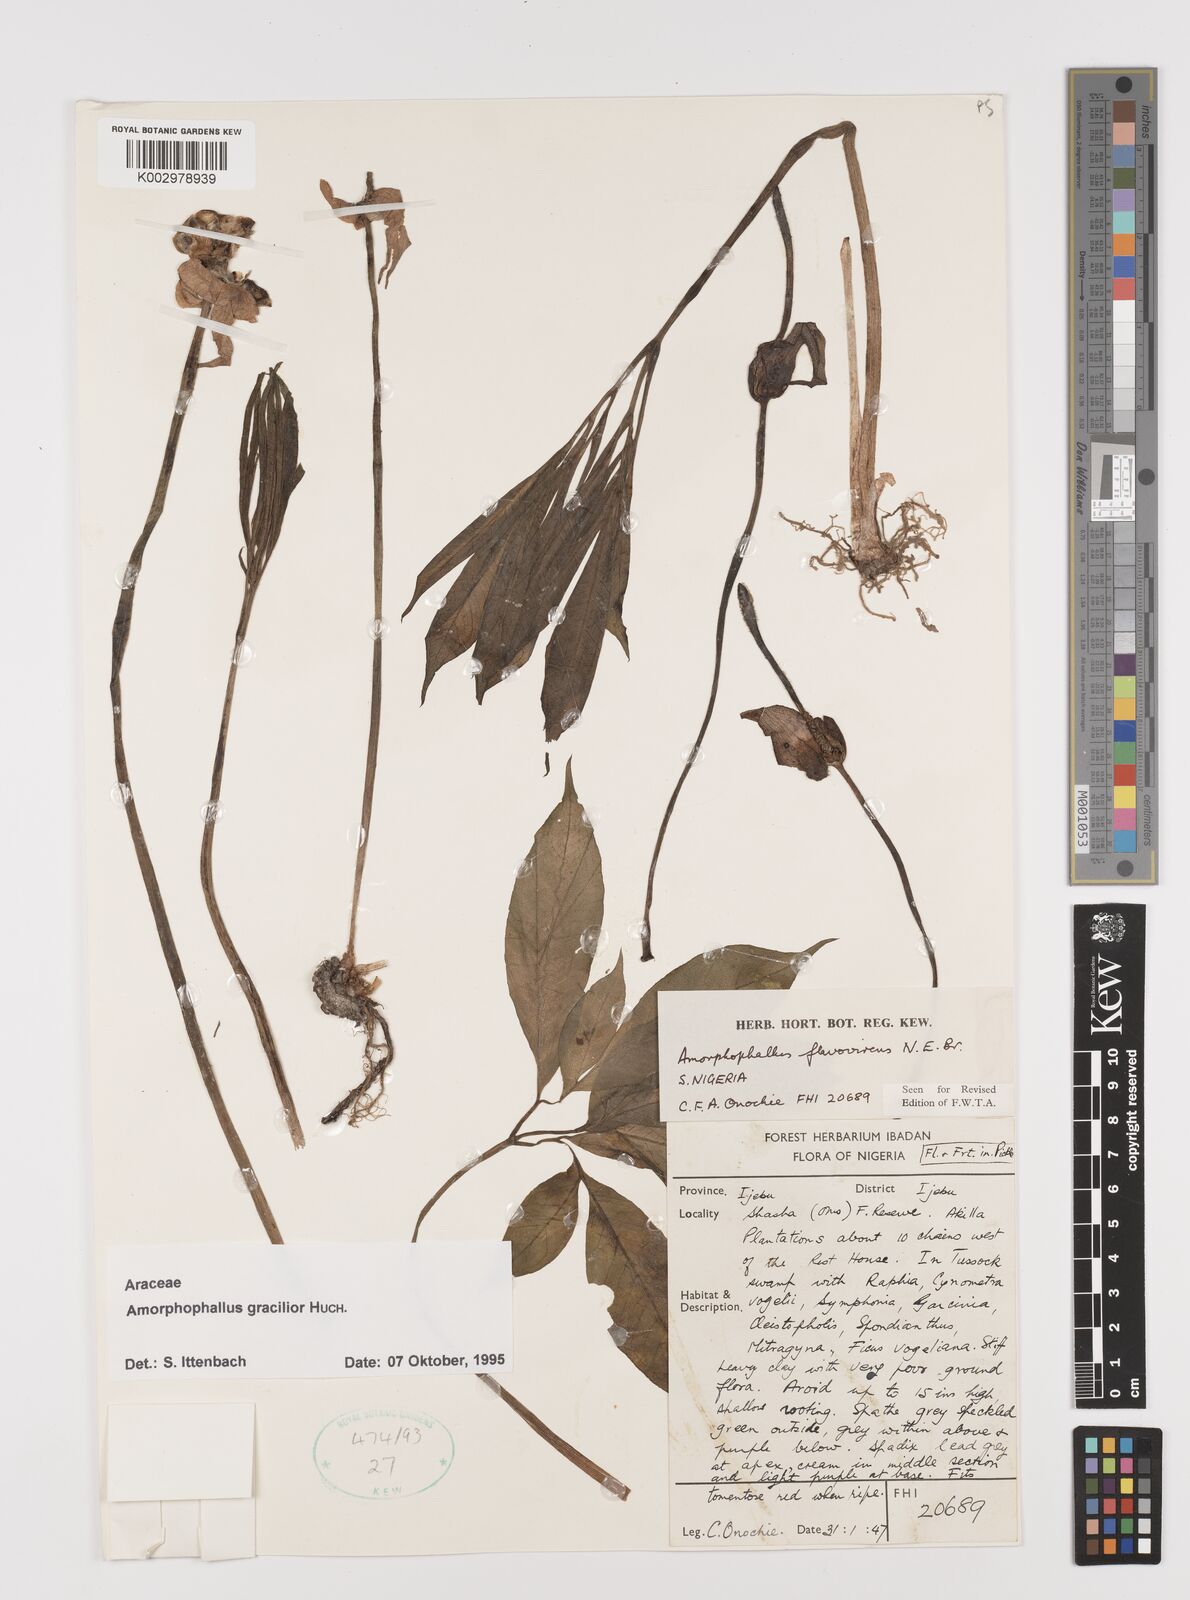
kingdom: Plantae
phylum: Tracheophyta
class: Liliopsida
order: Alismatales
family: Araceae
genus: Amorphophallus
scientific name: Amorphophallus gracilior
